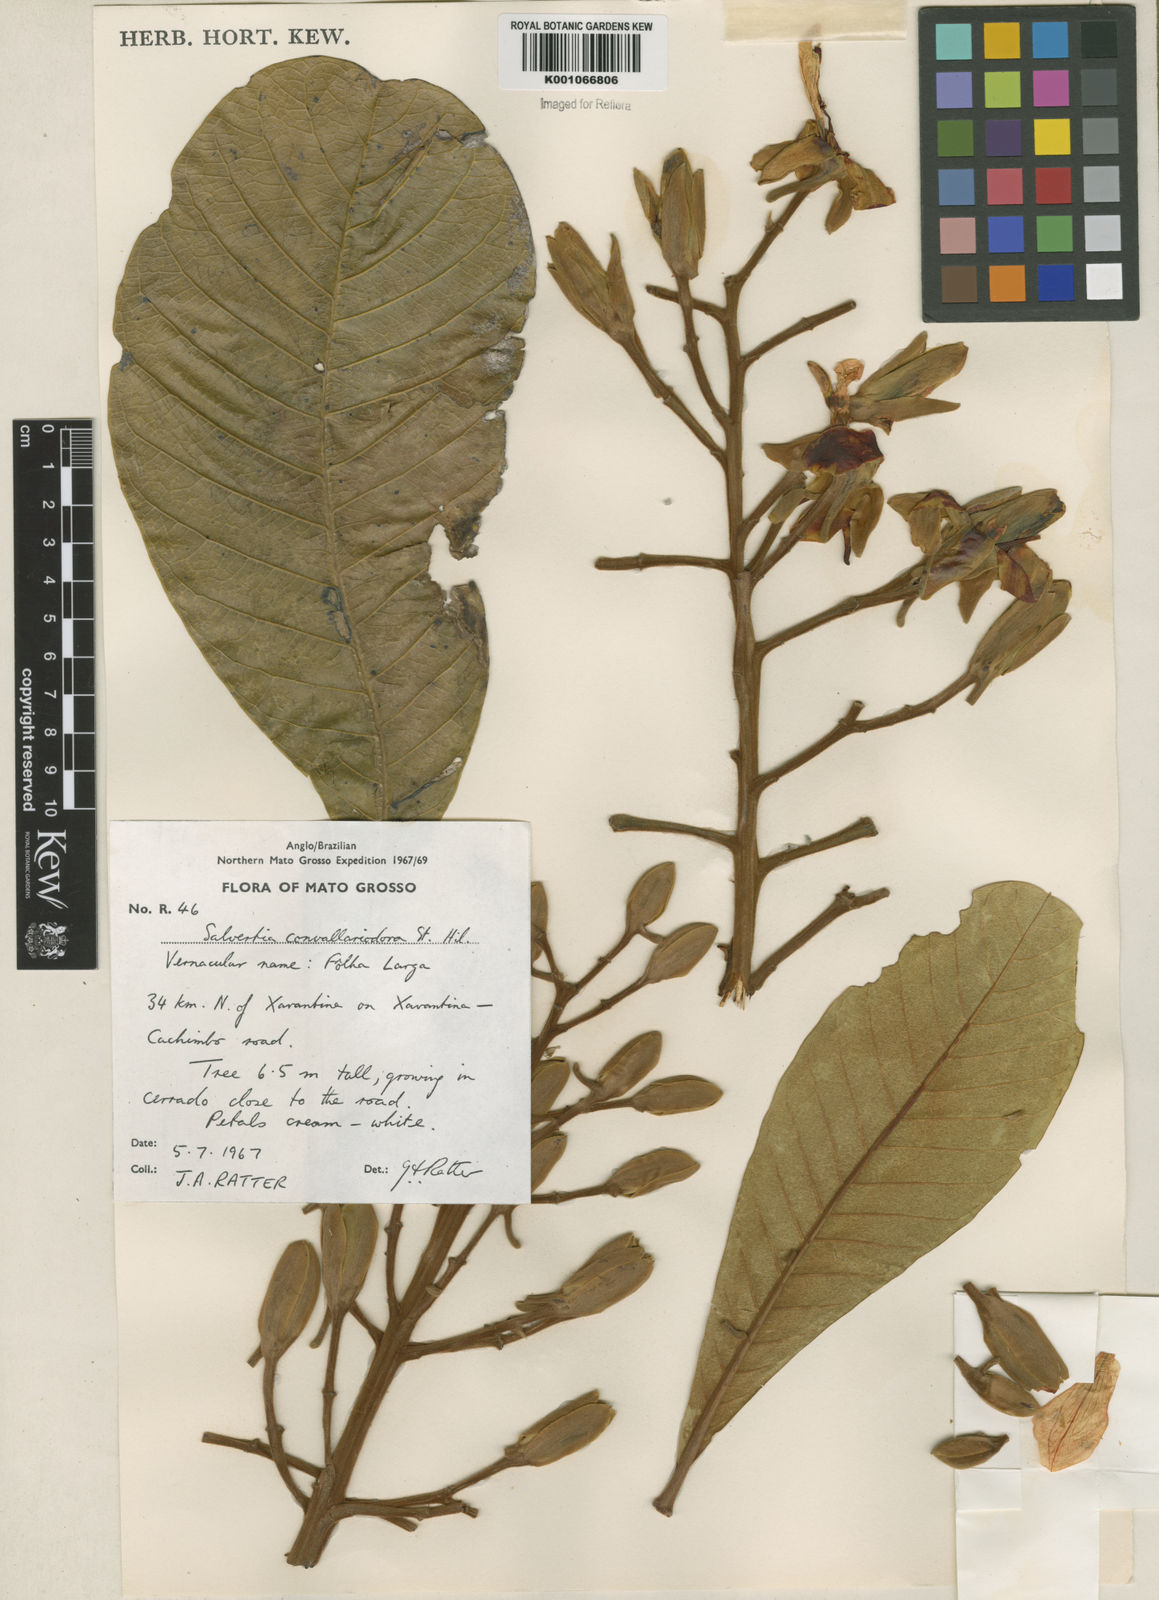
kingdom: Plantae
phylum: Tracheophyta
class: Magnoliopsida
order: Myrtales
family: Vochysiaceae
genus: Salvertia
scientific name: Salvertia convallariodora
